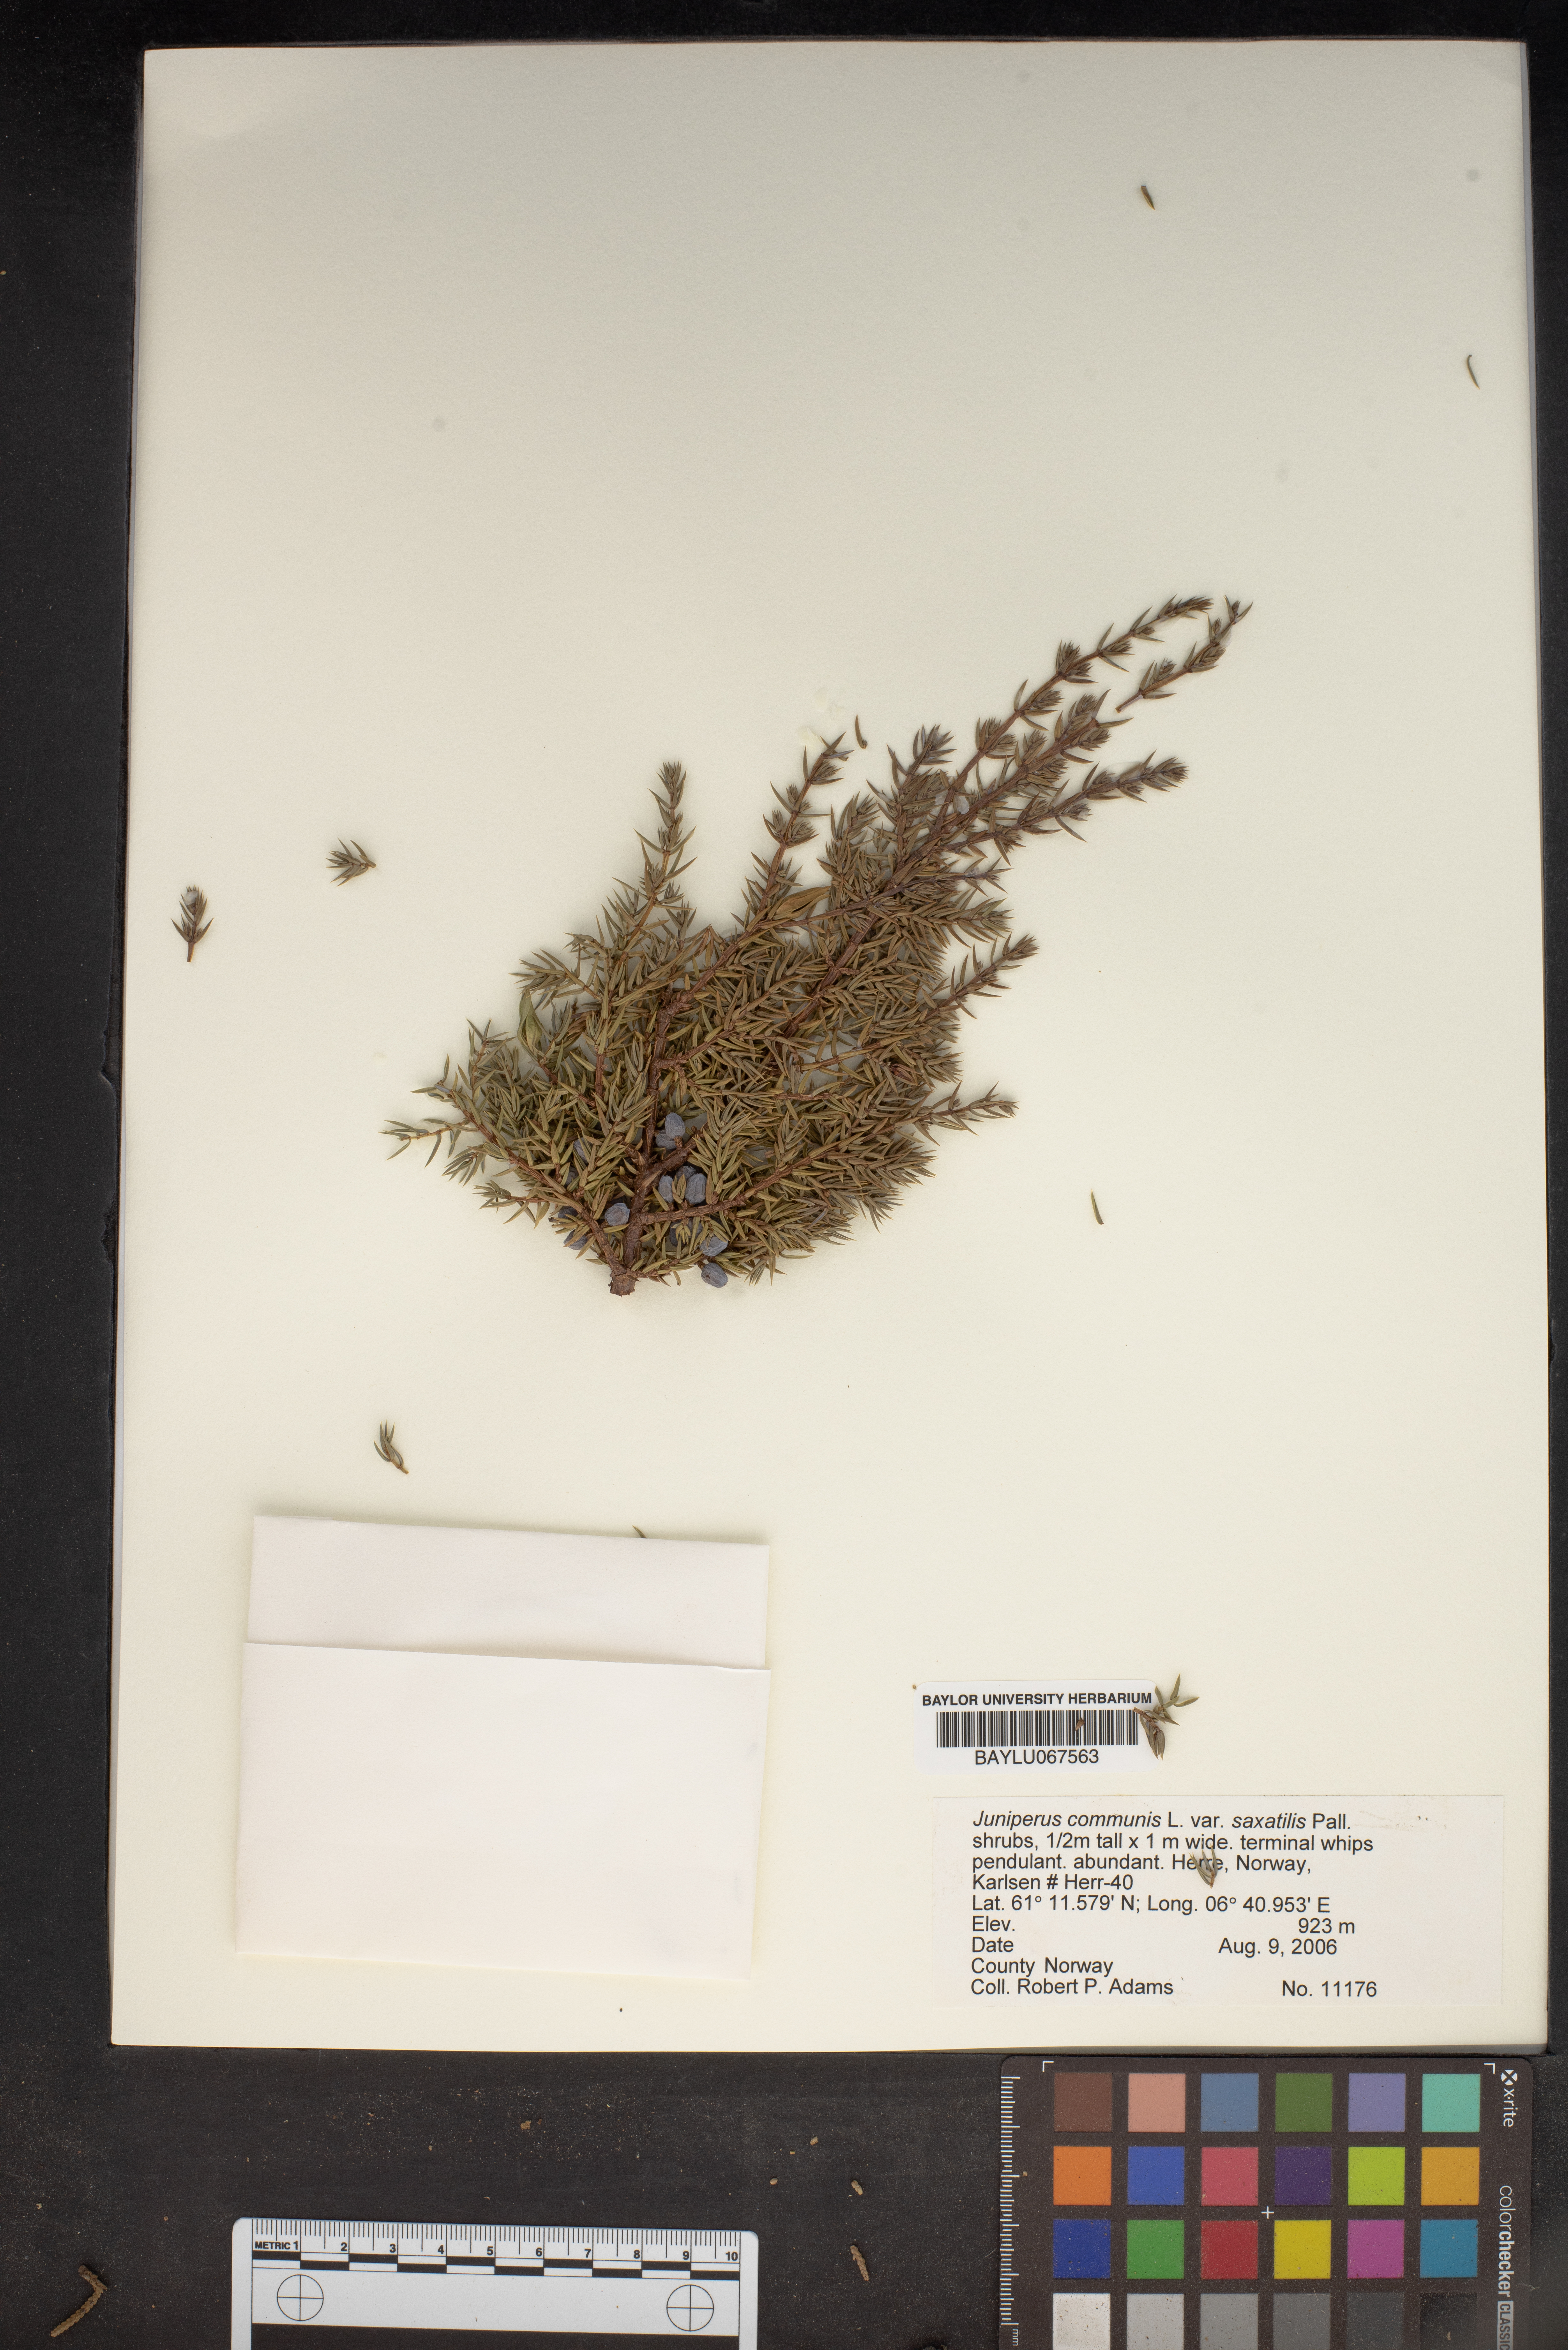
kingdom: Plantae
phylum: Tracheophyta
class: Pinopsida
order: Pinales
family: Cupressaceae
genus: Juniperus
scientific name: Juniperus communis
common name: Common juniper
